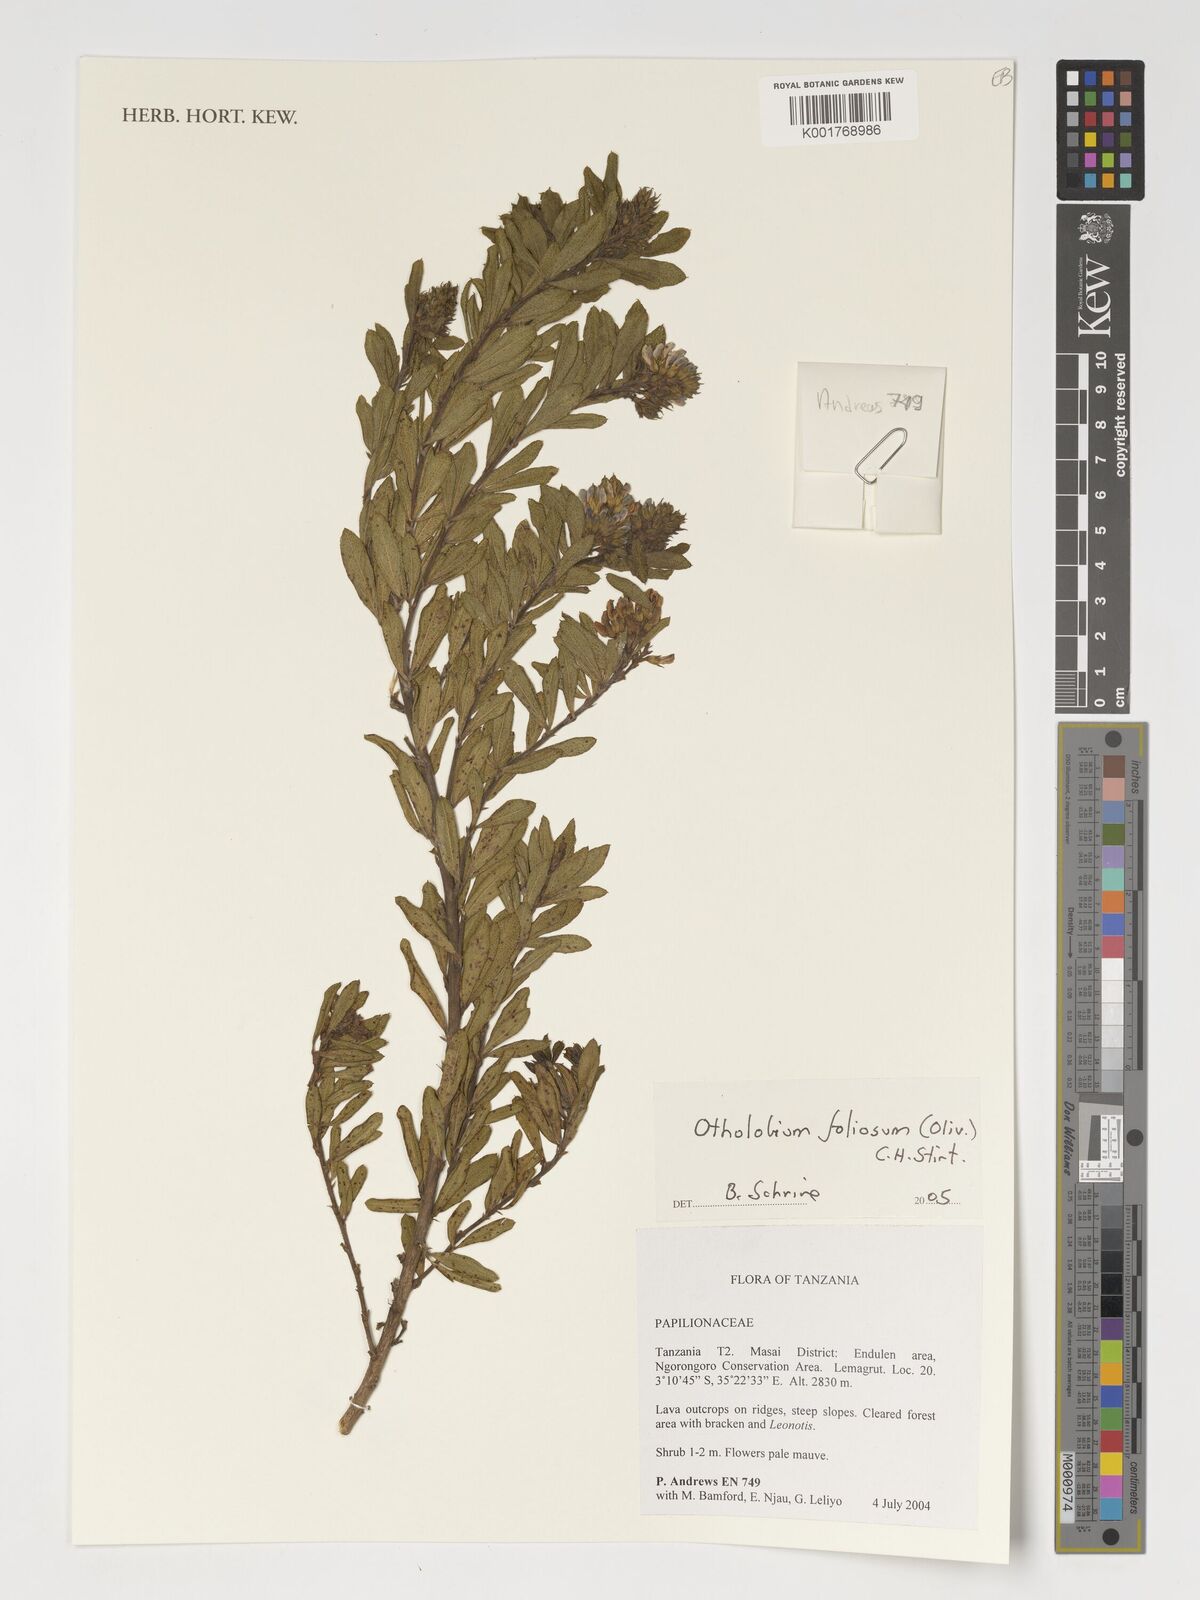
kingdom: Plantae
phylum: Tracheophyta
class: Magnoliopsida
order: Fabales
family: Fabaceae
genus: Psoralea
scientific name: Psoralea foliosa
